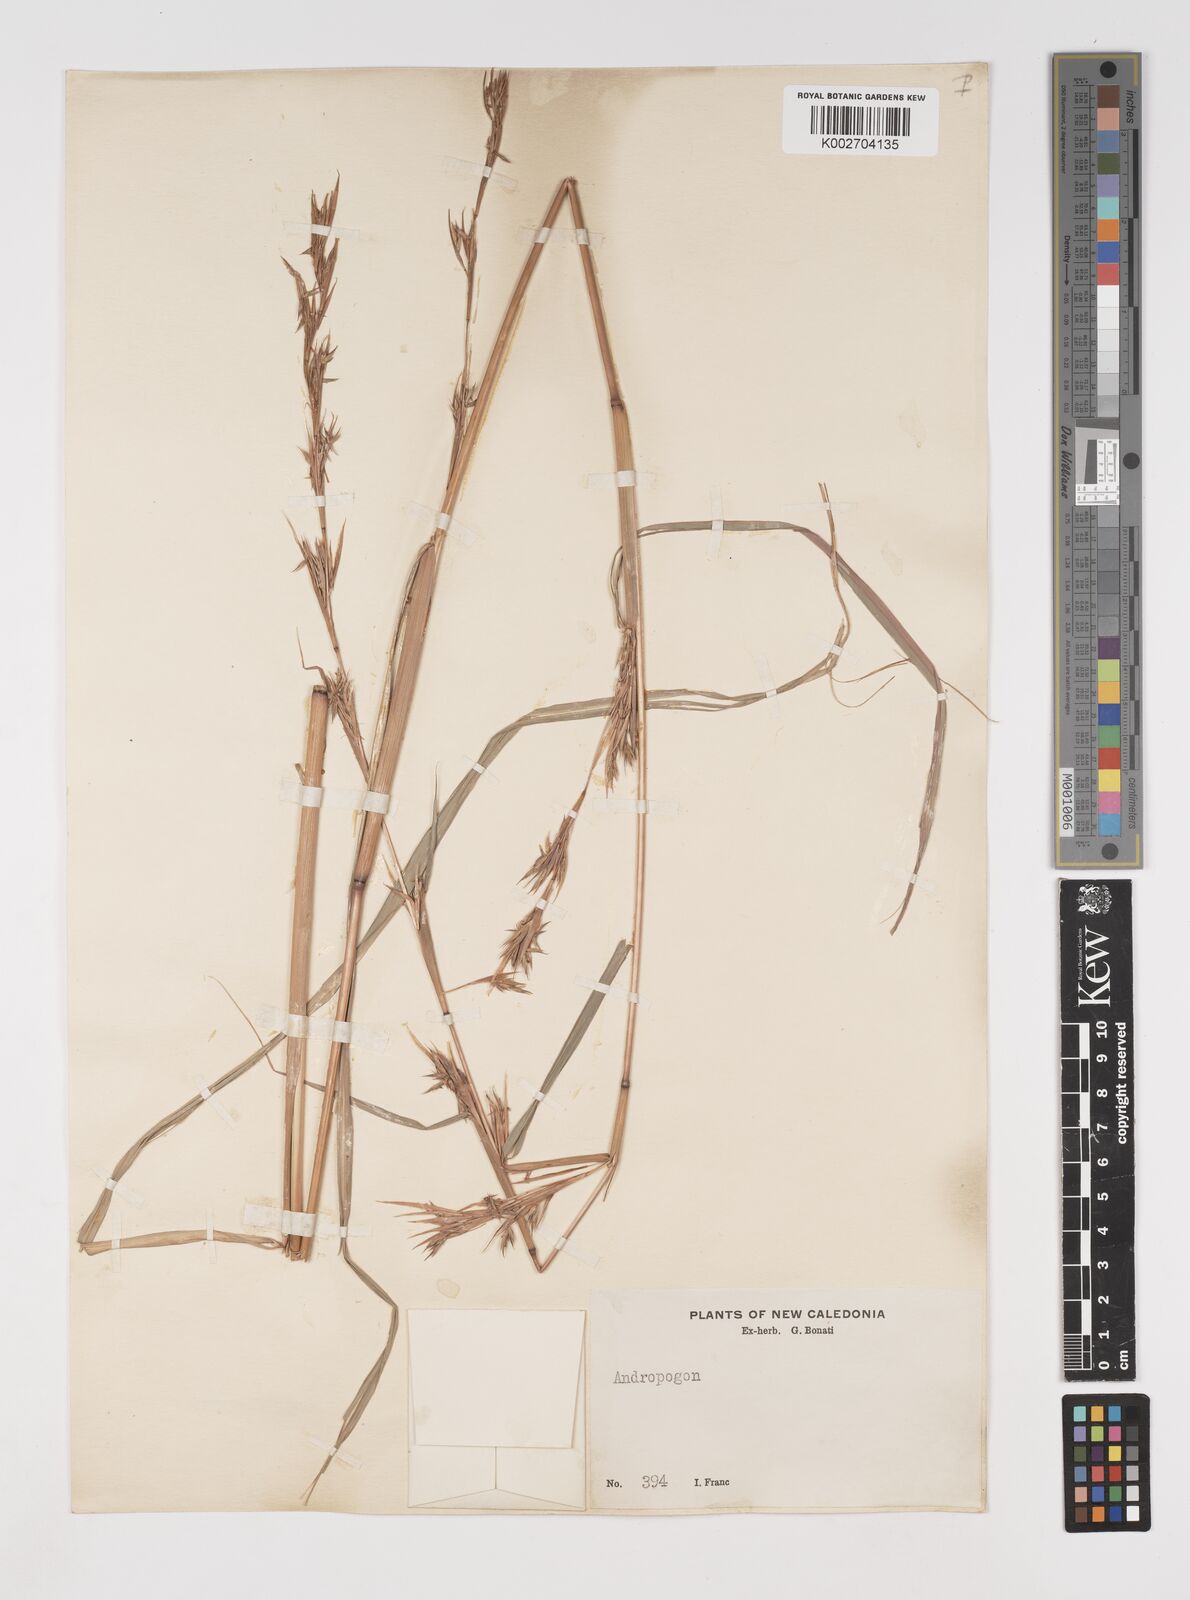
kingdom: Plantae
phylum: Tracheophyta
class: Liliopsida
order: Poales
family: Poaceae
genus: Cymbopogon
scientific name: Cymbopogon refractus
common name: Barbwire grass
